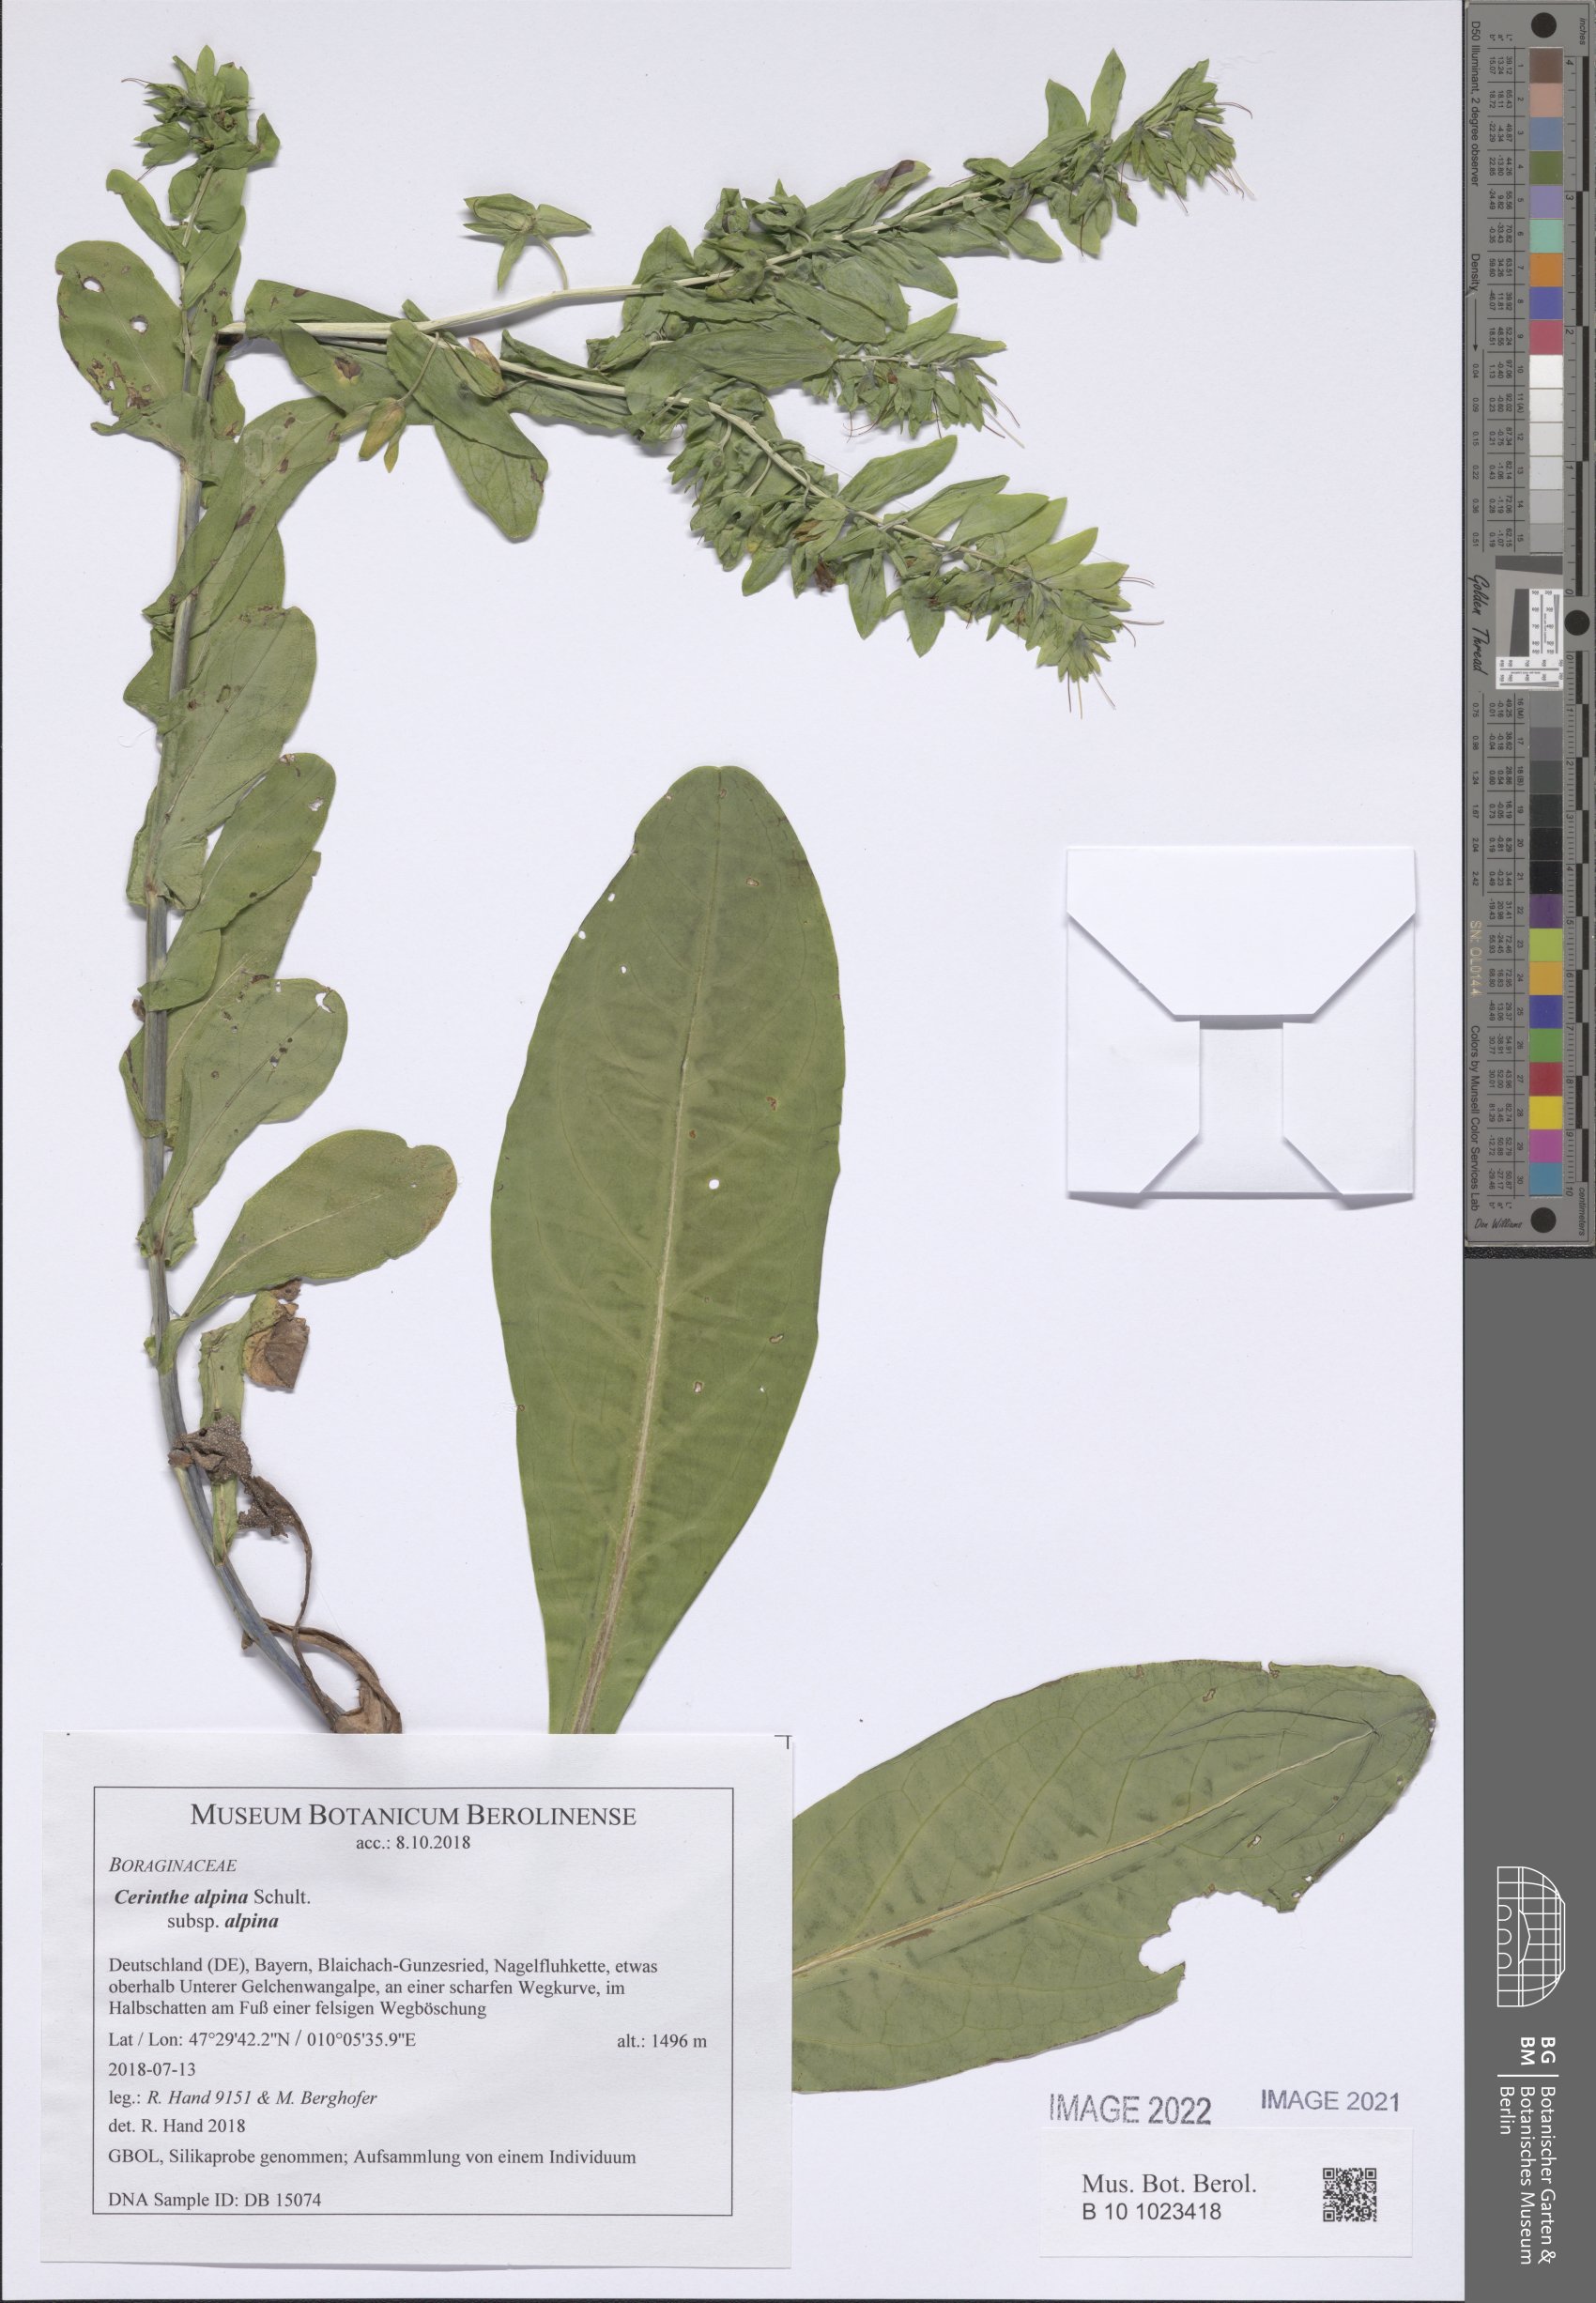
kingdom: Plantae
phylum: Tracheophyta
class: Magnoliopsida
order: Boraginales
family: Boraginaceae
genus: Cerinthe
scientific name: Cerinthe glabra
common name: Smooth honeywort
